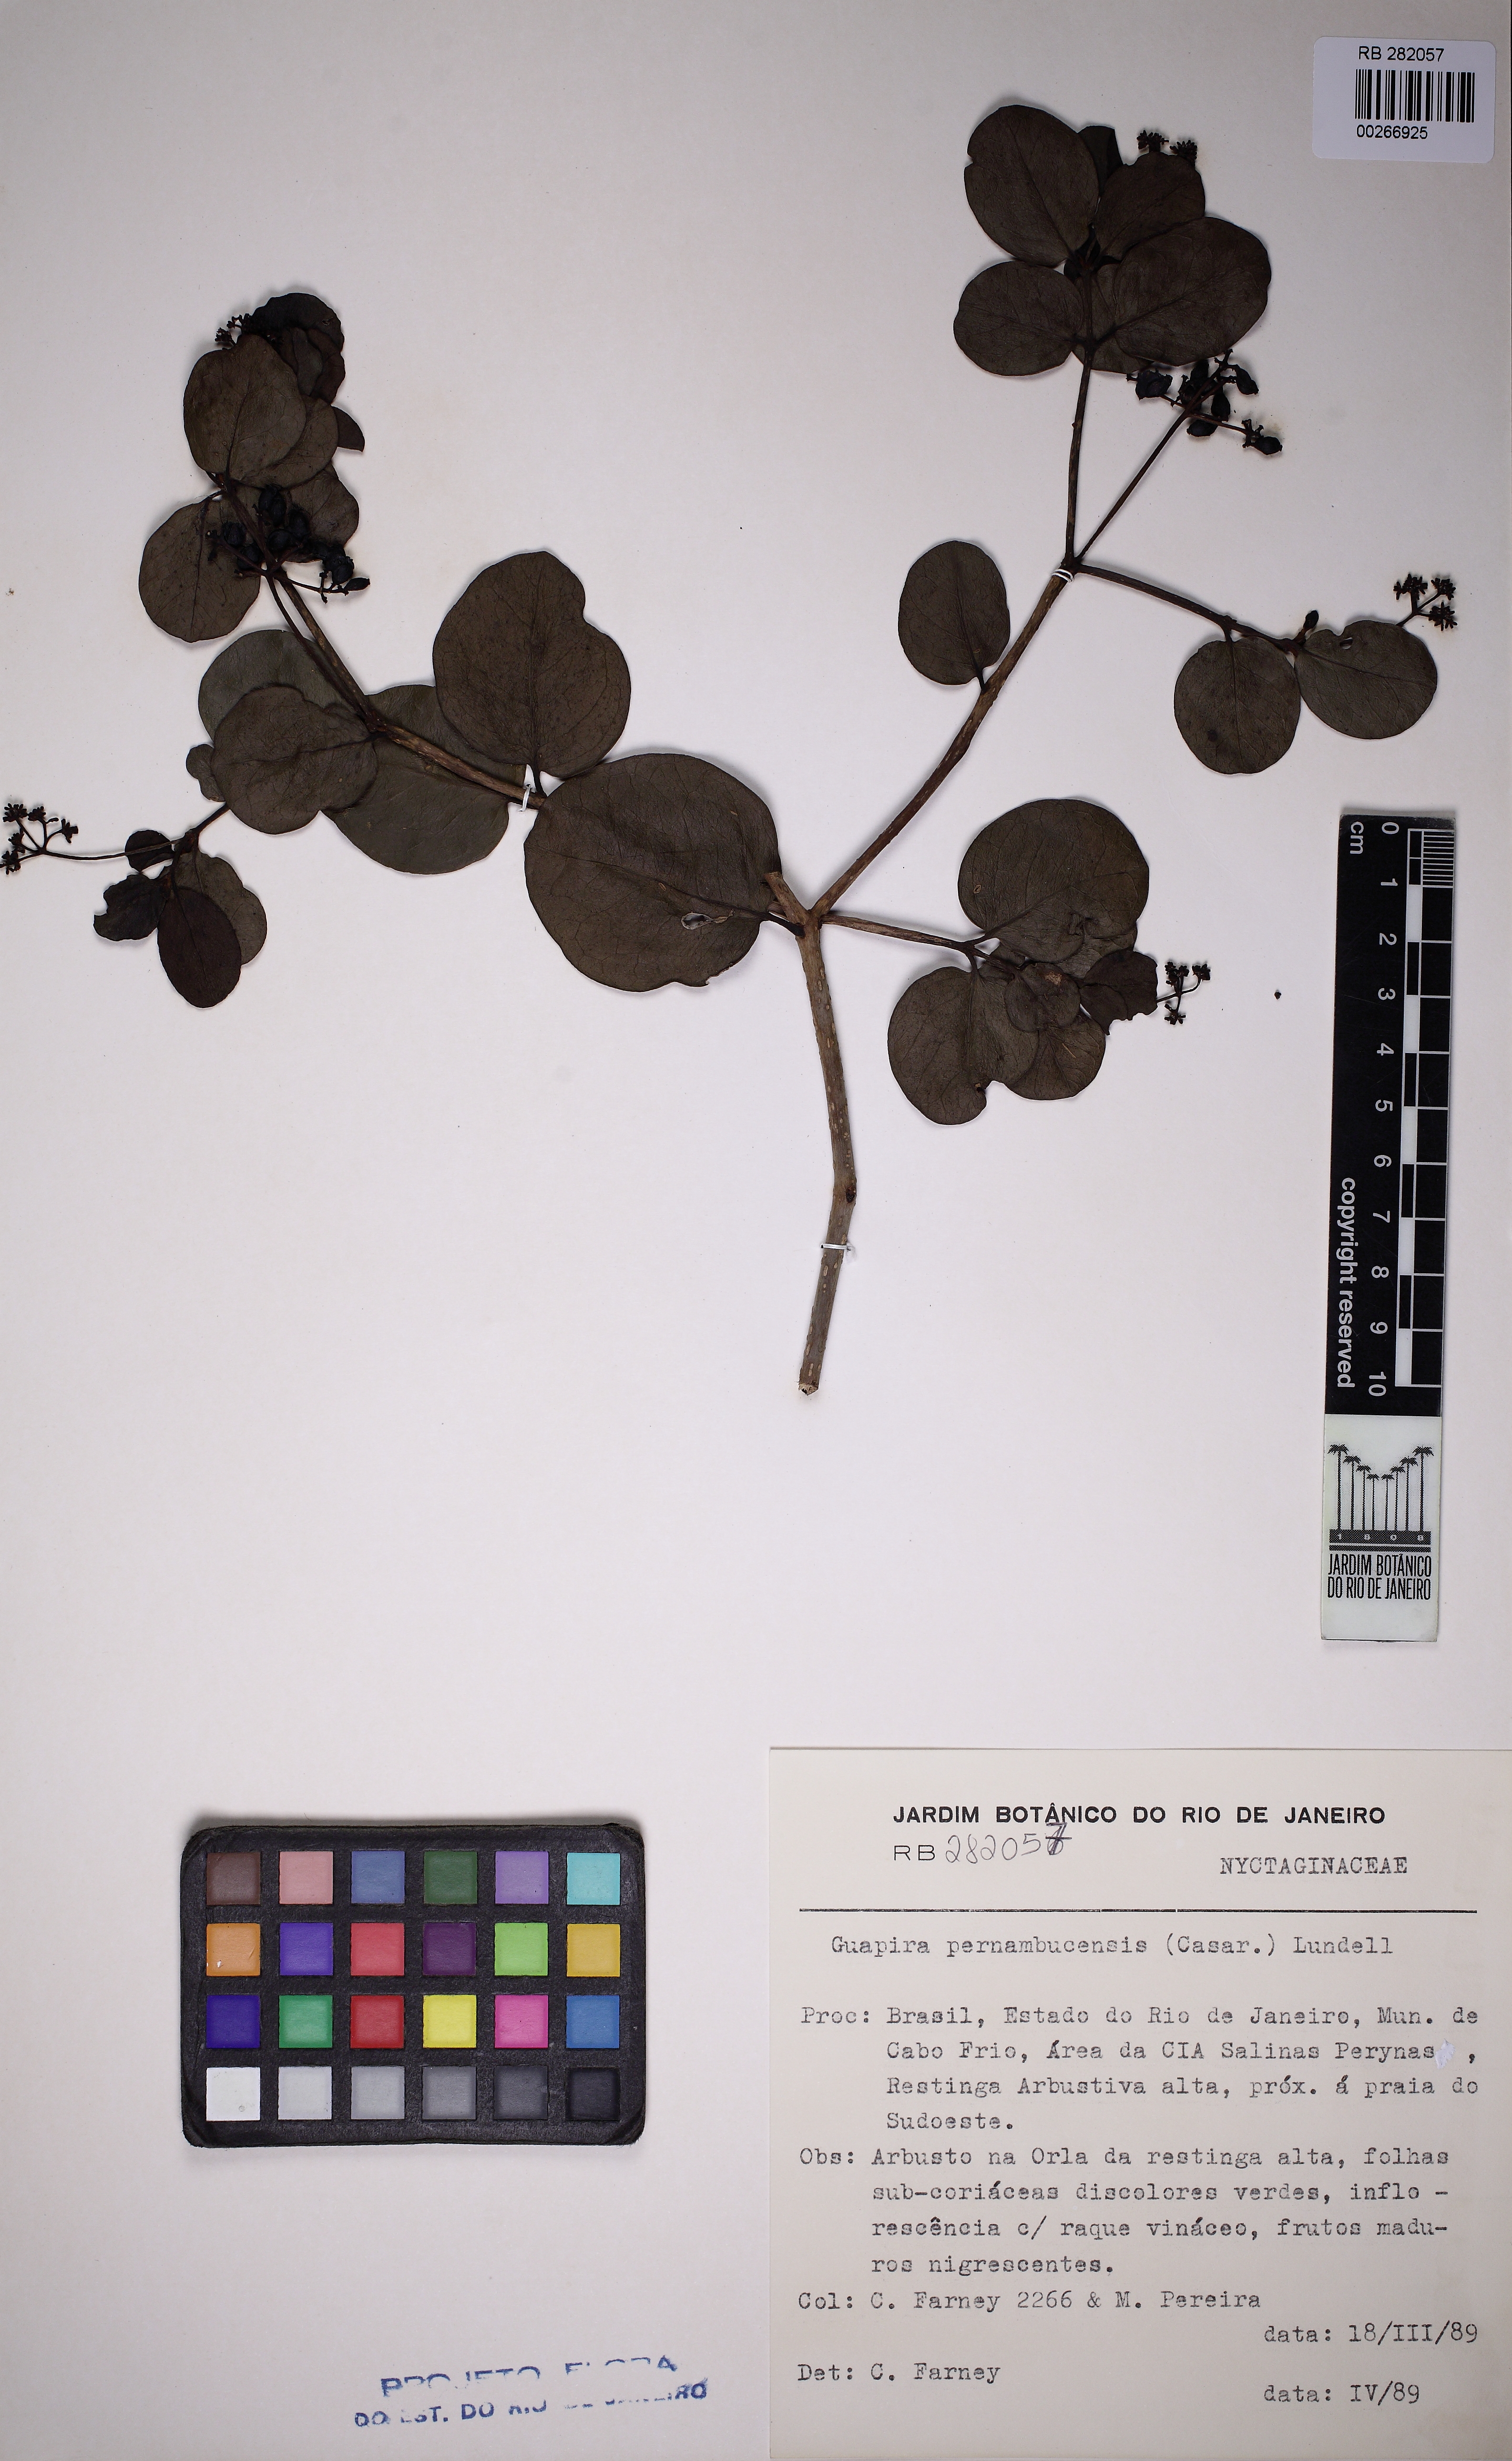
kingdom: Plantae
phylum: Tracheophyta
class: Magnoliopsida
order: Caryophyllales
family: Nyctaginaceae
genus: Guapira
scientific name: Guapira pernambucensis
